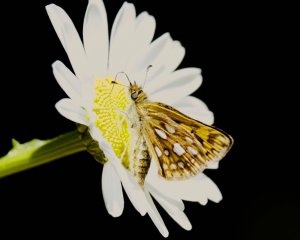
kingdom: Animalia
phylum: Arthropoda
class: Insecta
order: Lepidoptera
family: Hesperiidae
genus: Carterocephalus
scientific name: Carterocephalus palaemon
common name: Chequered Skipper
